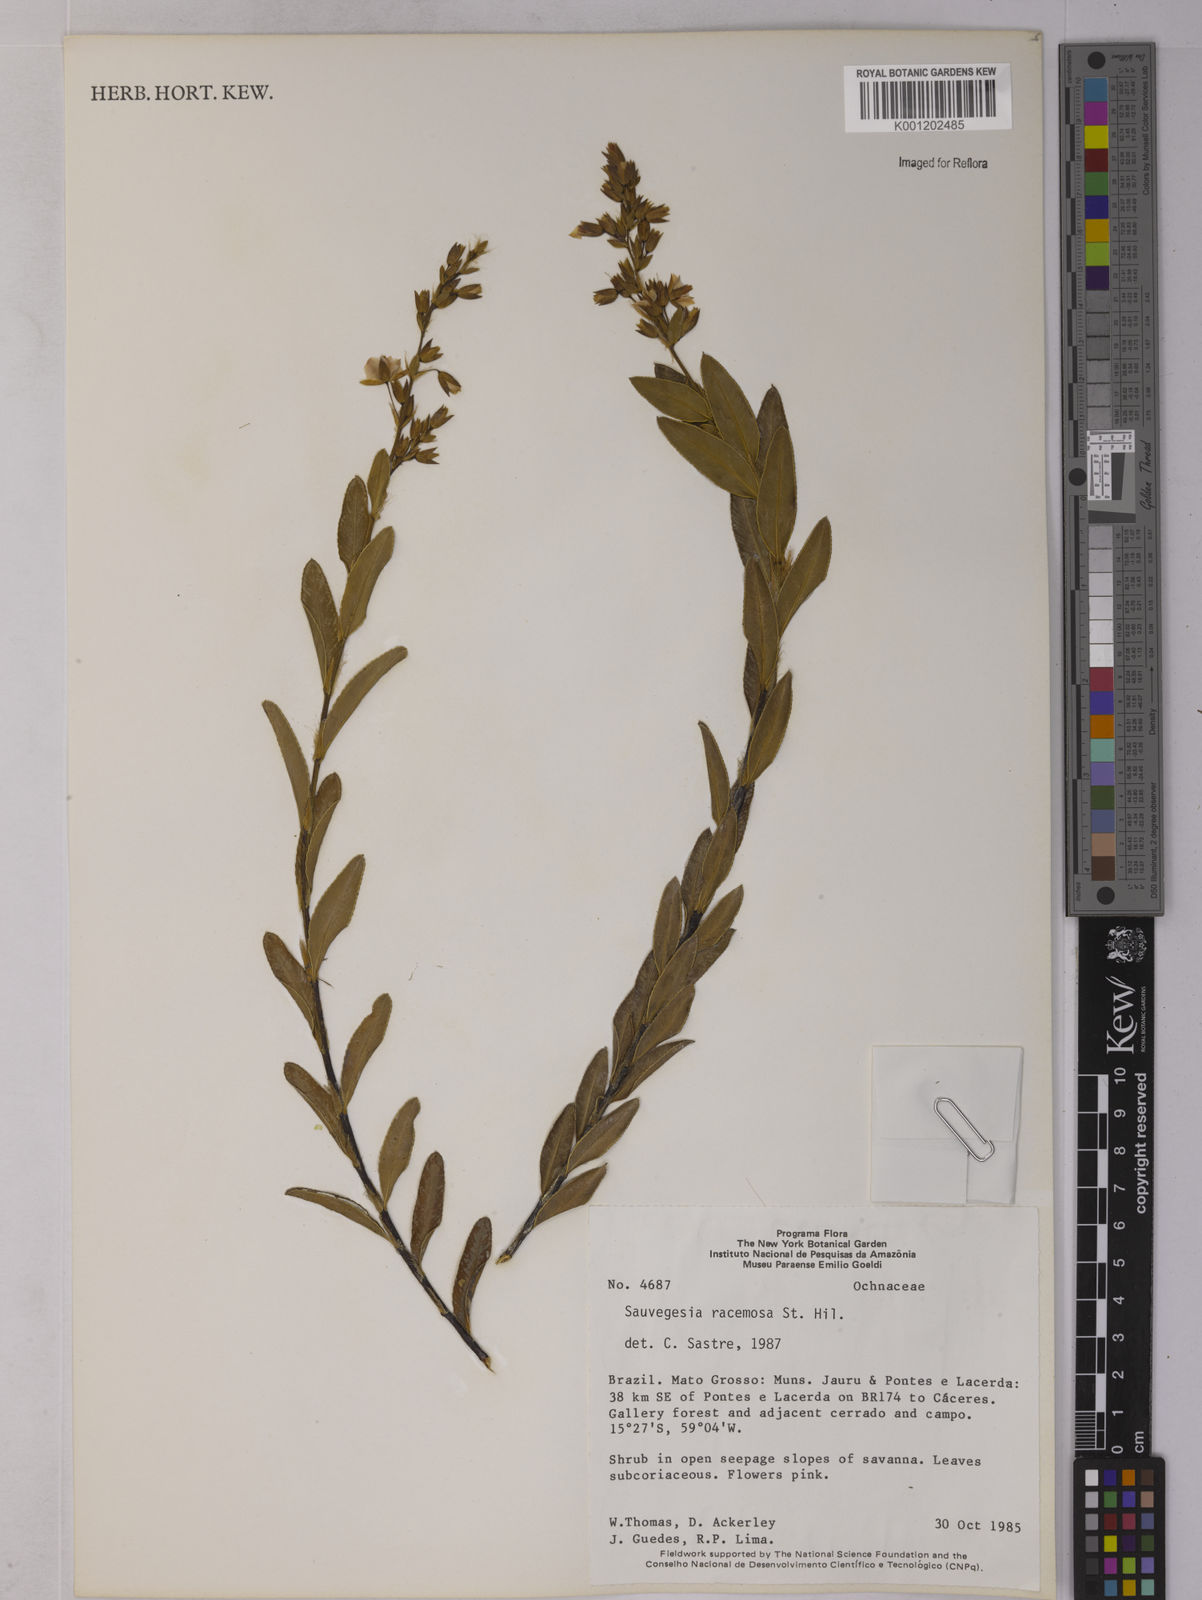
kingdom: Plantae
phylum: Tracheophyta
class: Magnoliopsida
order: Malpighiales
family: Ochnaceae
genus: Sauvagesia
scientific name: Sauvagesia racemosa
